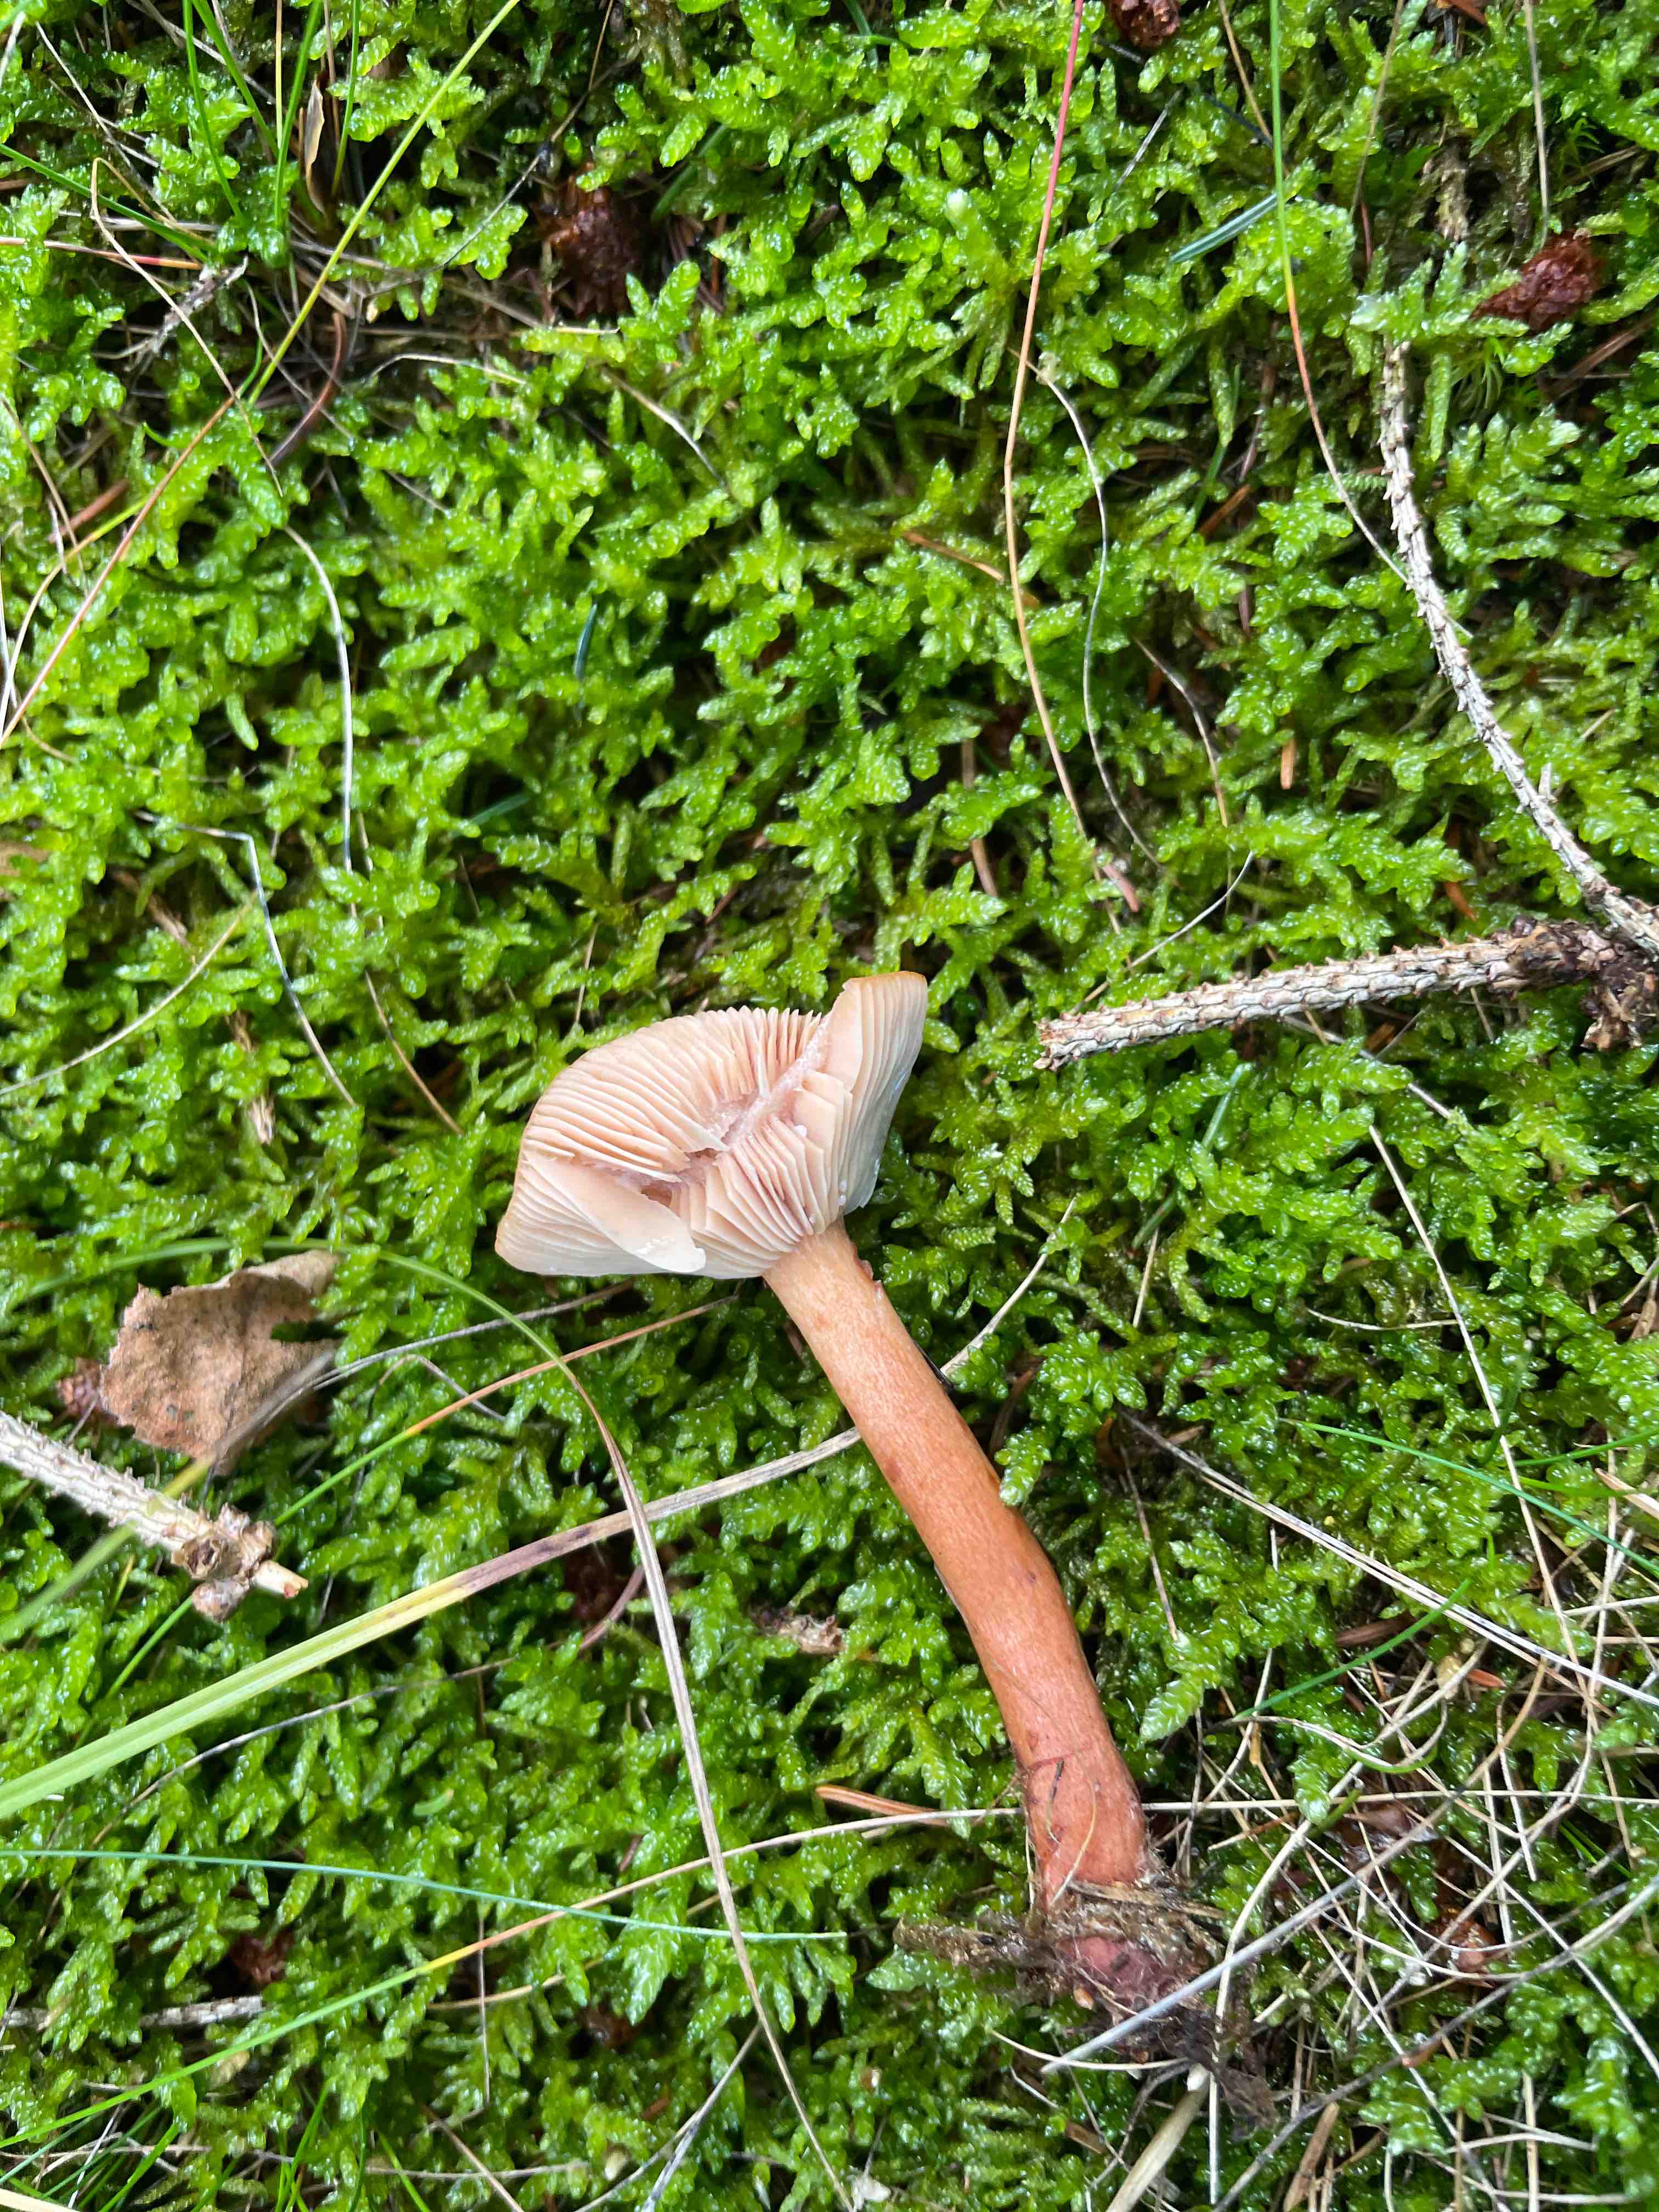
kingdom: Fungi
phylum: Basidiomycota
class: Agaricomycetes
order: Russulales
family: Russulaceae
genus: Lactarius
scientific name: Lactarius rufus
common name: rødbrun mælkehat
